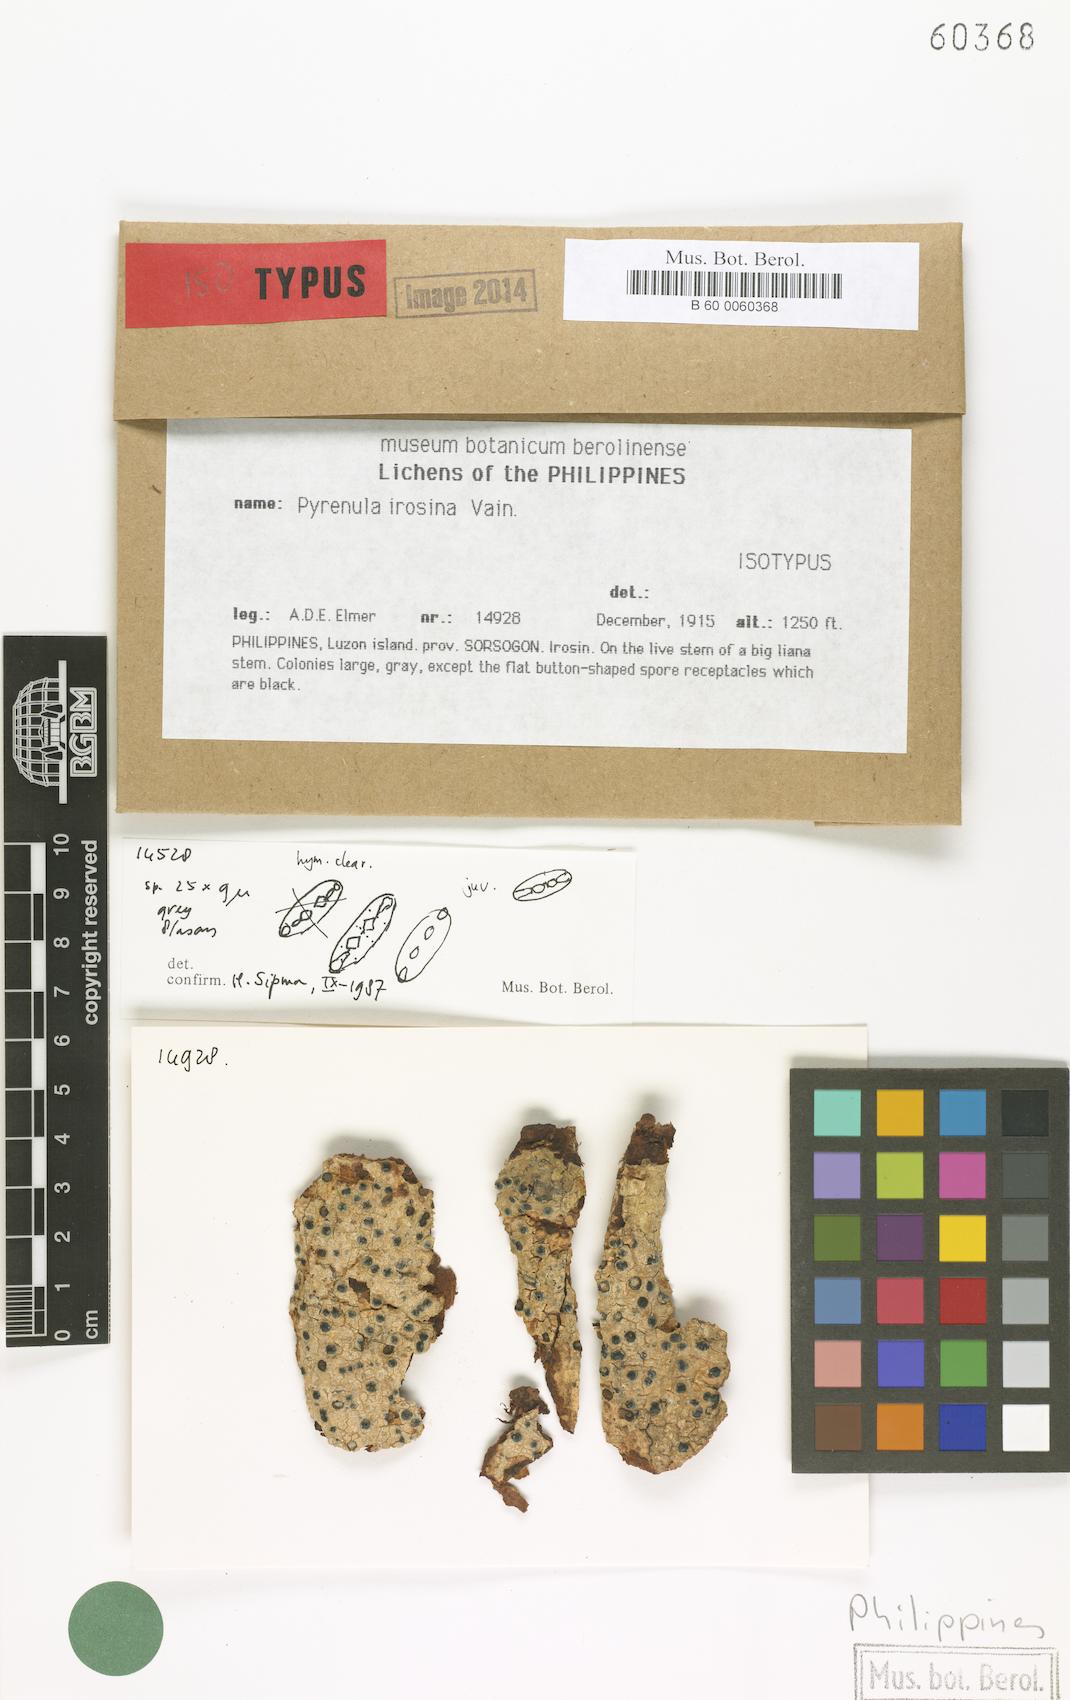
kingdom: Fungi
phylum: Ascomycota
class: Eurotiomycetes
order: Pyrenulales
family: Pyrenulaceae
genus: Pyrenula
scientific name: Pyrenula
